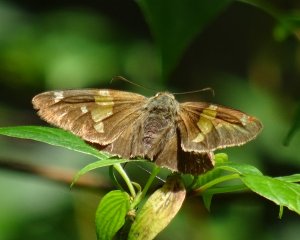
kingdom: Animalia
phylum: Arthropoda
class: Insecta
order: Lepidoptera
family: Hesperiidae
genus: Epargyreus
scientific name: Epargyreus clarus
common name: Silver-spotted Skipper
